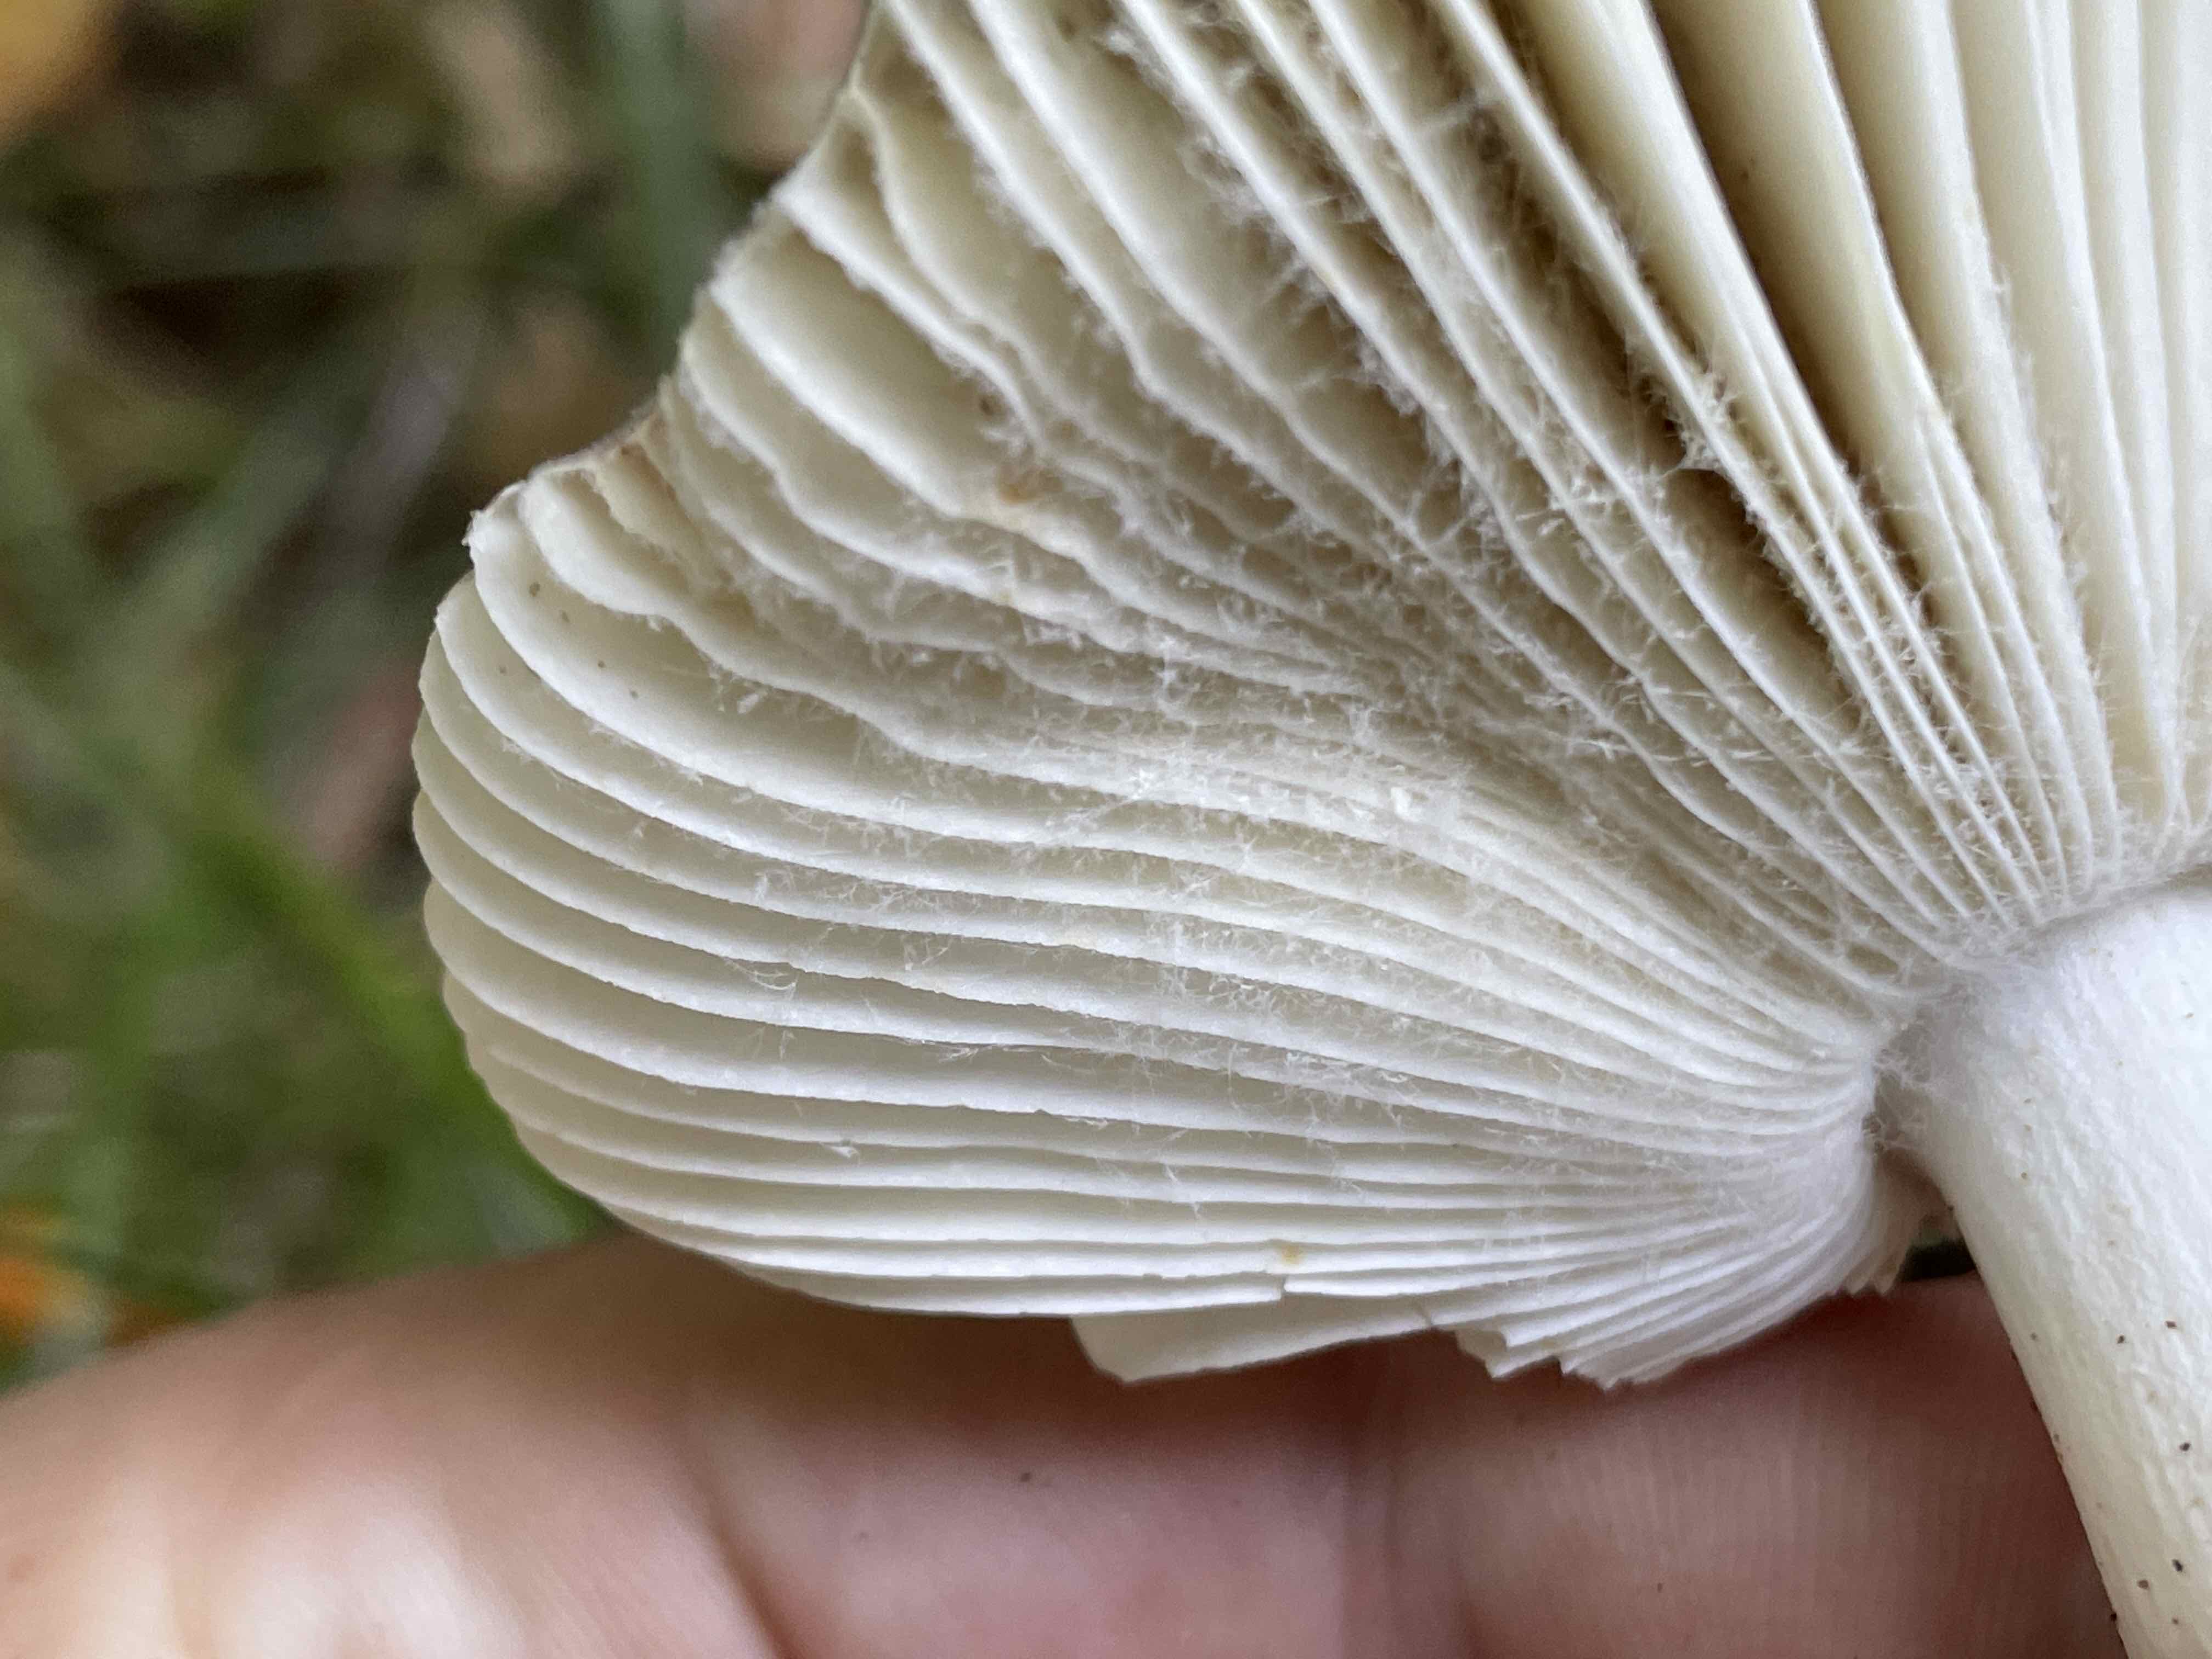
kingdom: Fungi
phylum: Basidiomycota
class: Agaricomycetes
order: Russulales
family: Russulaceae
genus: Russula
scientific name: Russula
